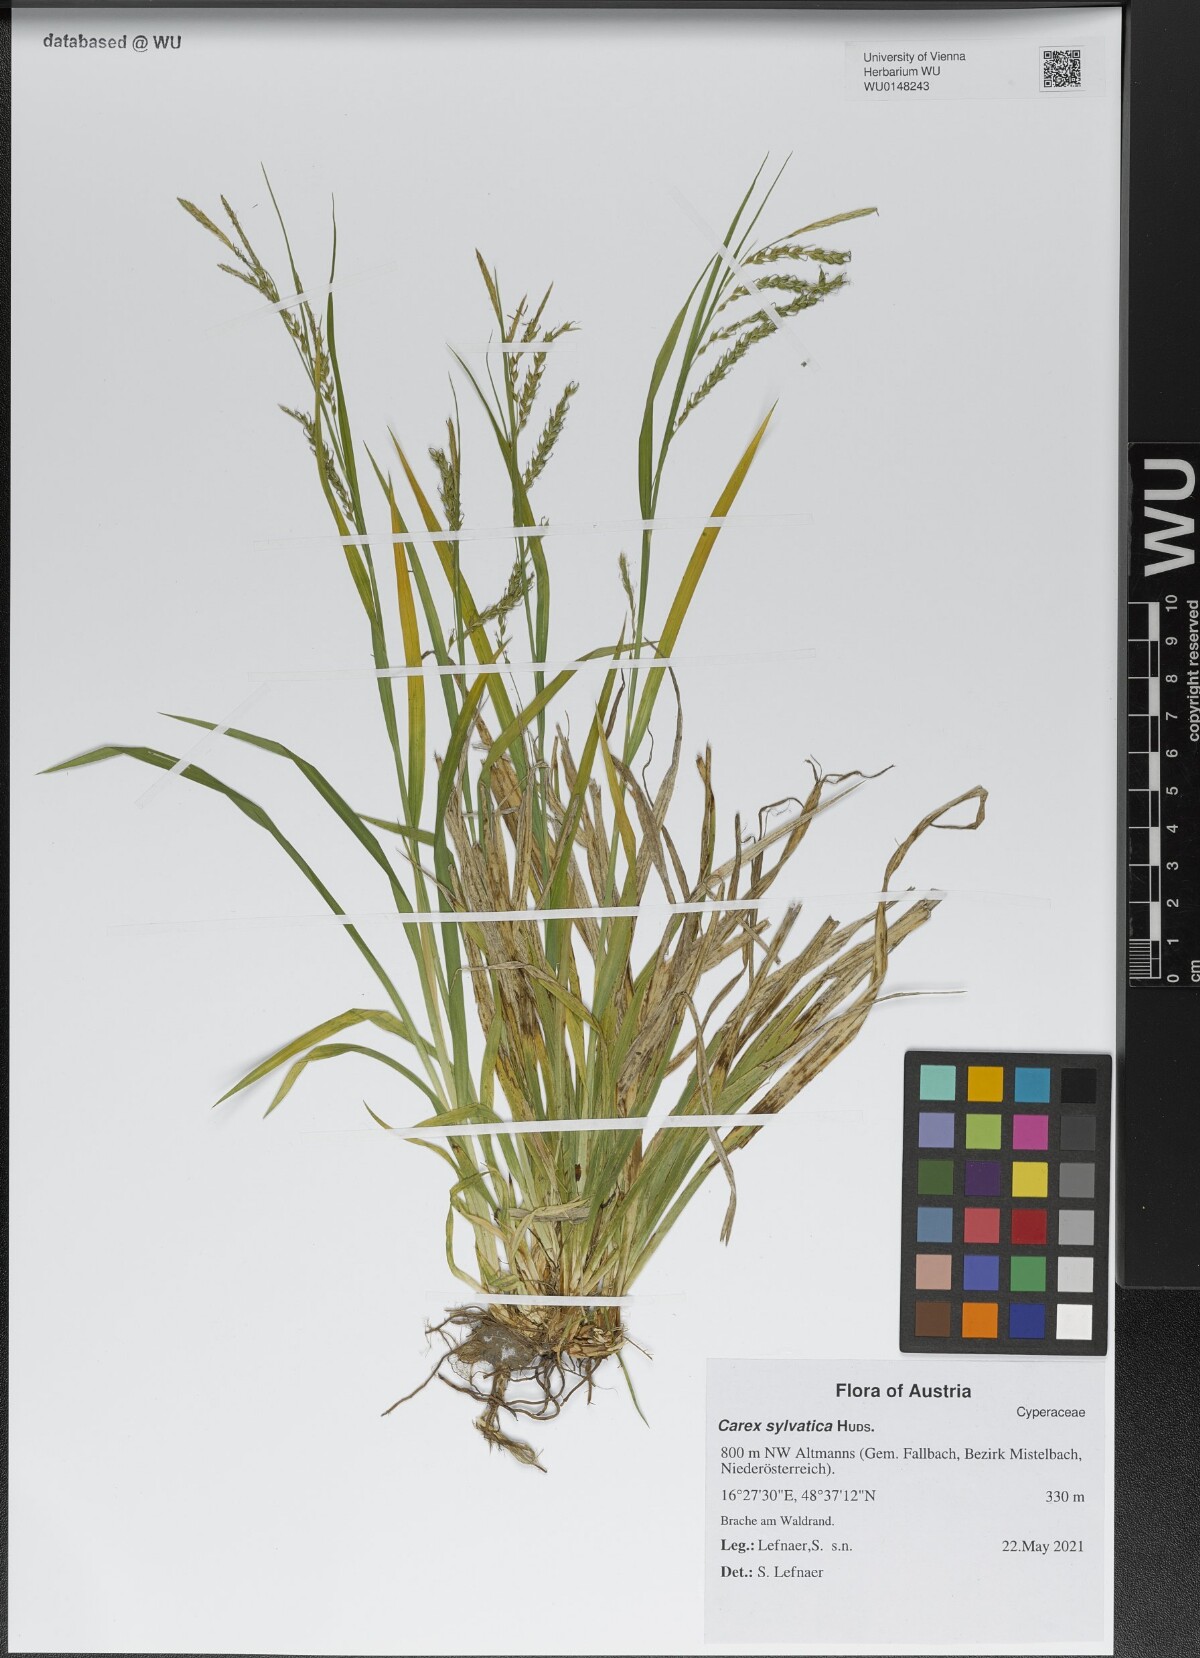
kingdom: Plantae
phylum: Tracheophyta
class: Liliopsida
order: Poales
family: Cyperaceae
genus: Carex
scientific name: Carex sylvatica
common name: Wood-sedge
